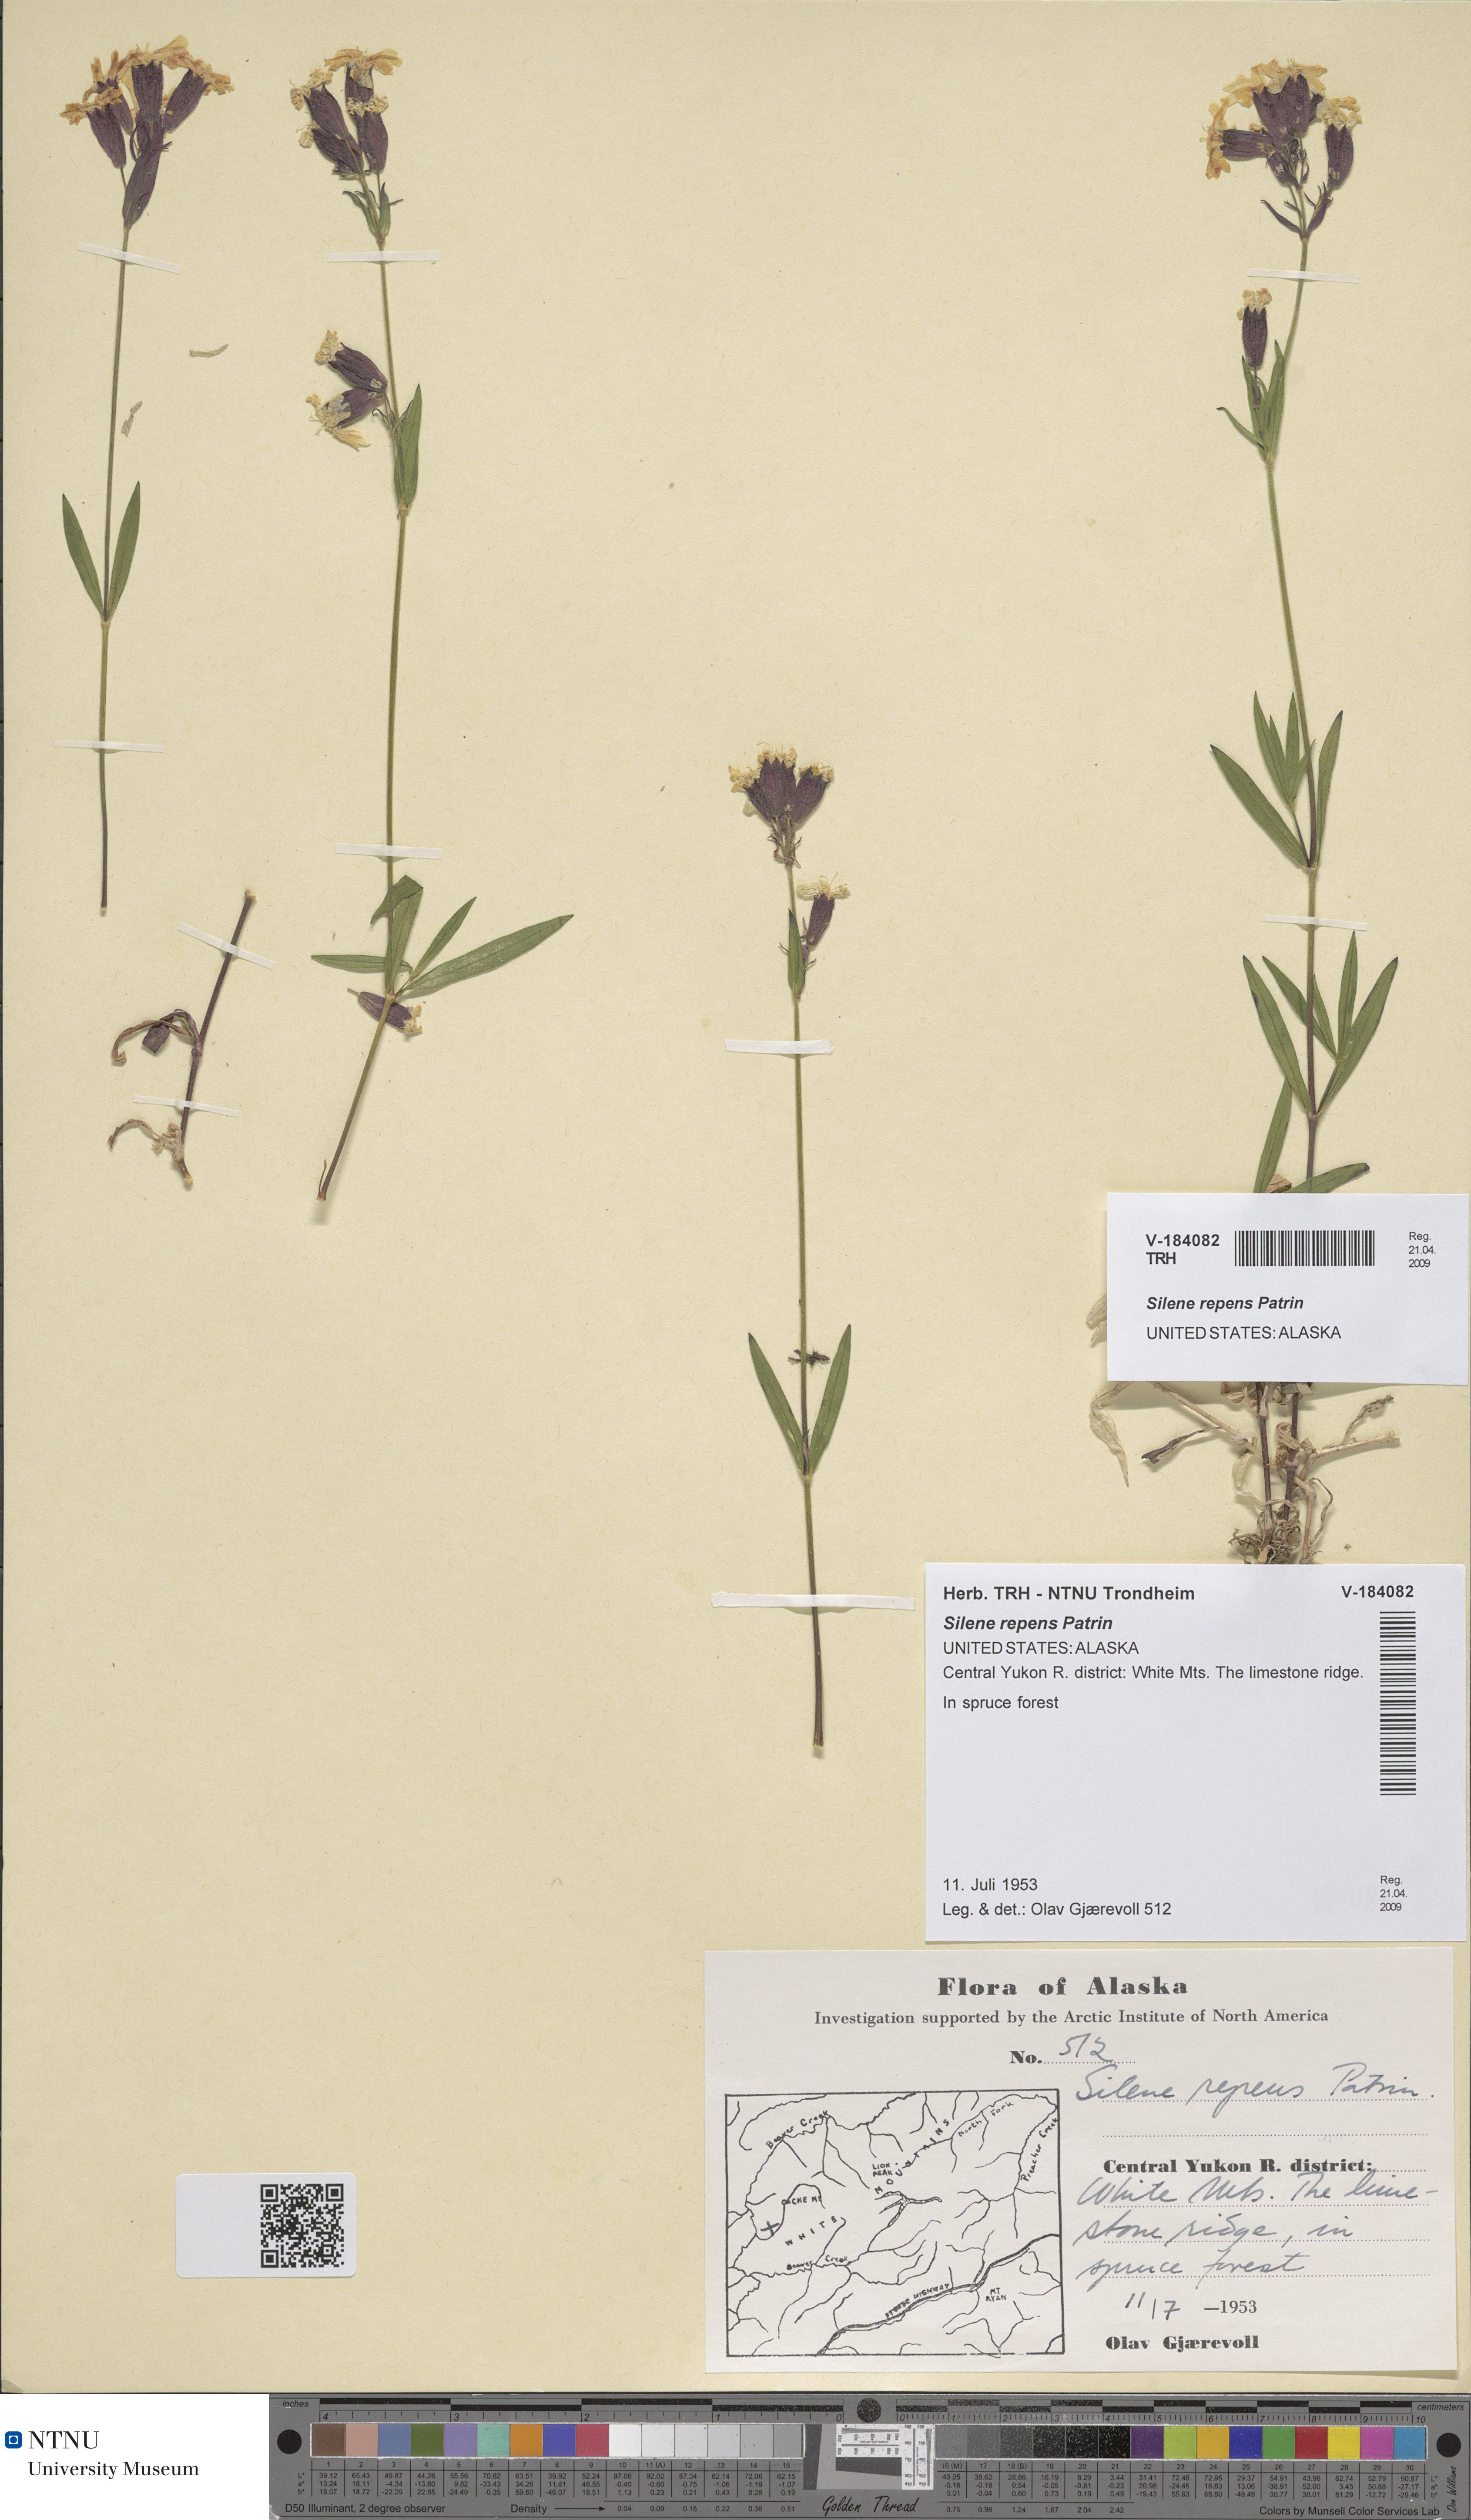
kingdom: Plantae
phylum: Tracheophyta
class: Magnoliopsida
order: Caryophyllales
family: Caryophyllaceae
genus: Silene
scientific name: Silene repens
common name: Pink campion
